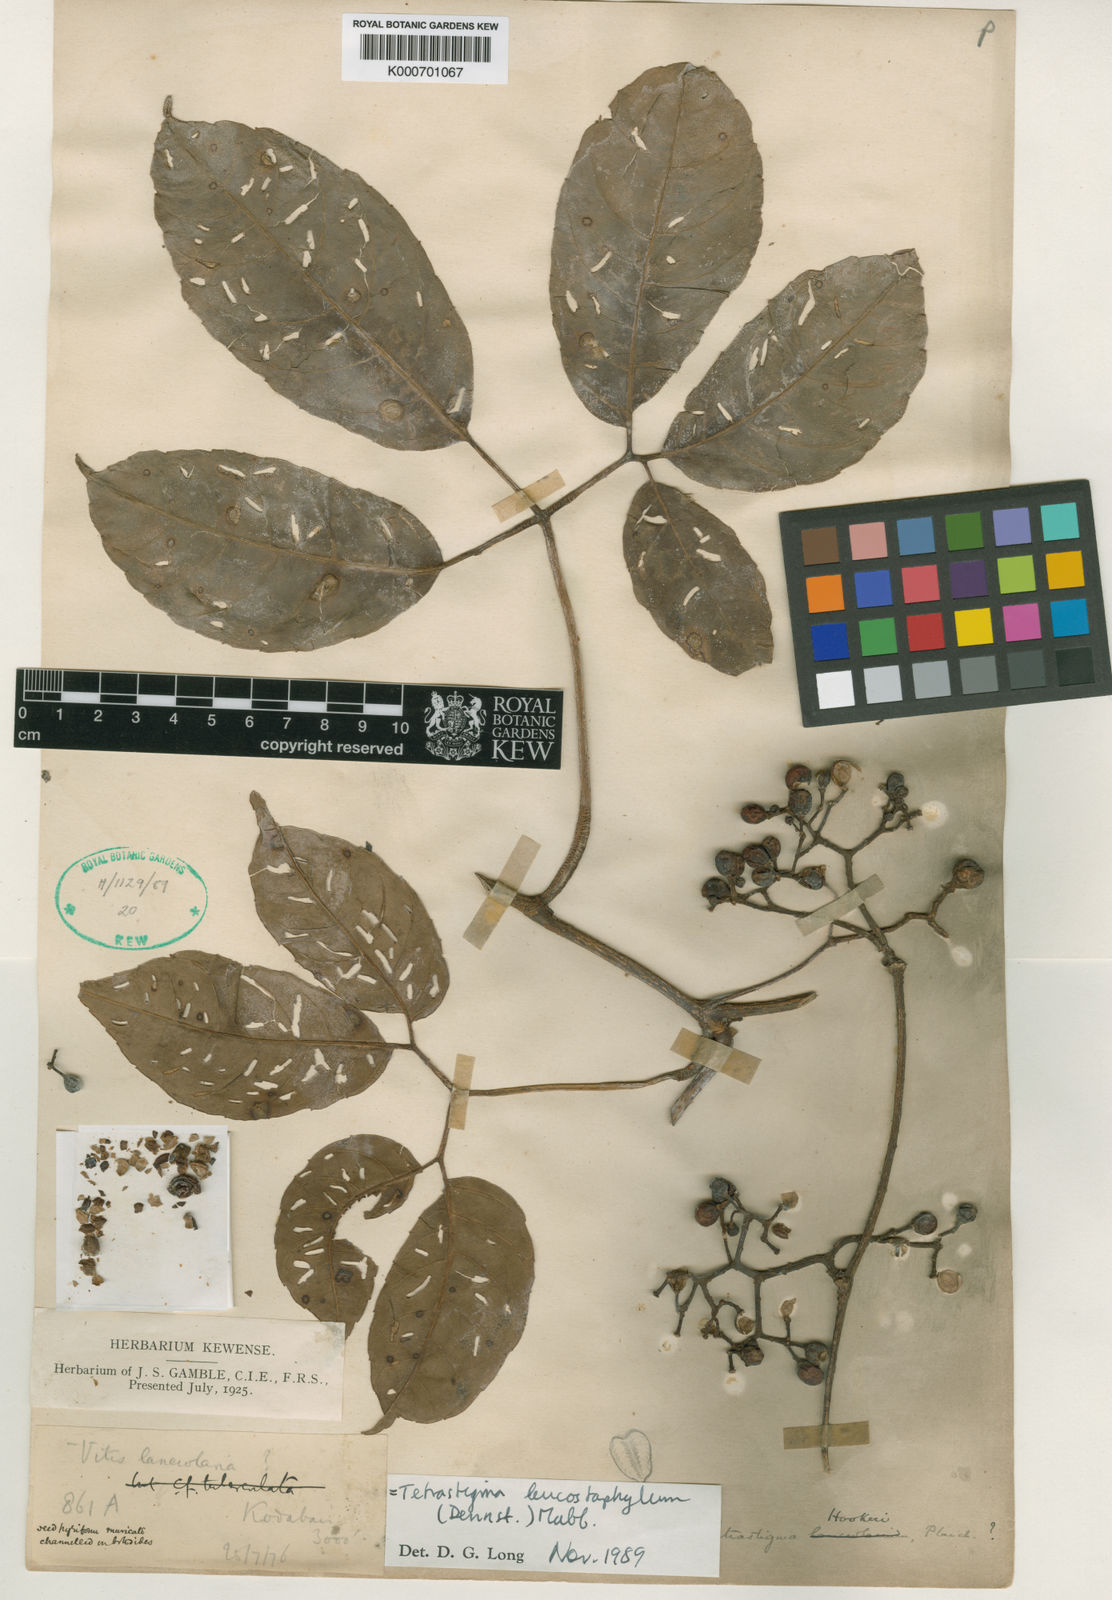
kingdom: Plantae
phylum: Tracheophyta
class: Magnoliopsida
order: Vitales
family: Vitaceae
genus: Tetrastigma
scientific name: Tetrastigma hookeri
